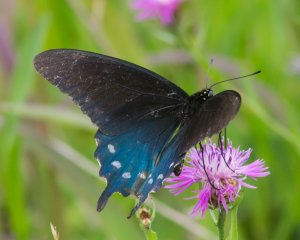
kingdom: Animalia
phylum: Arthropoda
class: Insecta
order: Lepidoptera
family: Papilionidae
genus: Battus
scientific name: Battus philenor
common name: Pipevine Swallowtail
